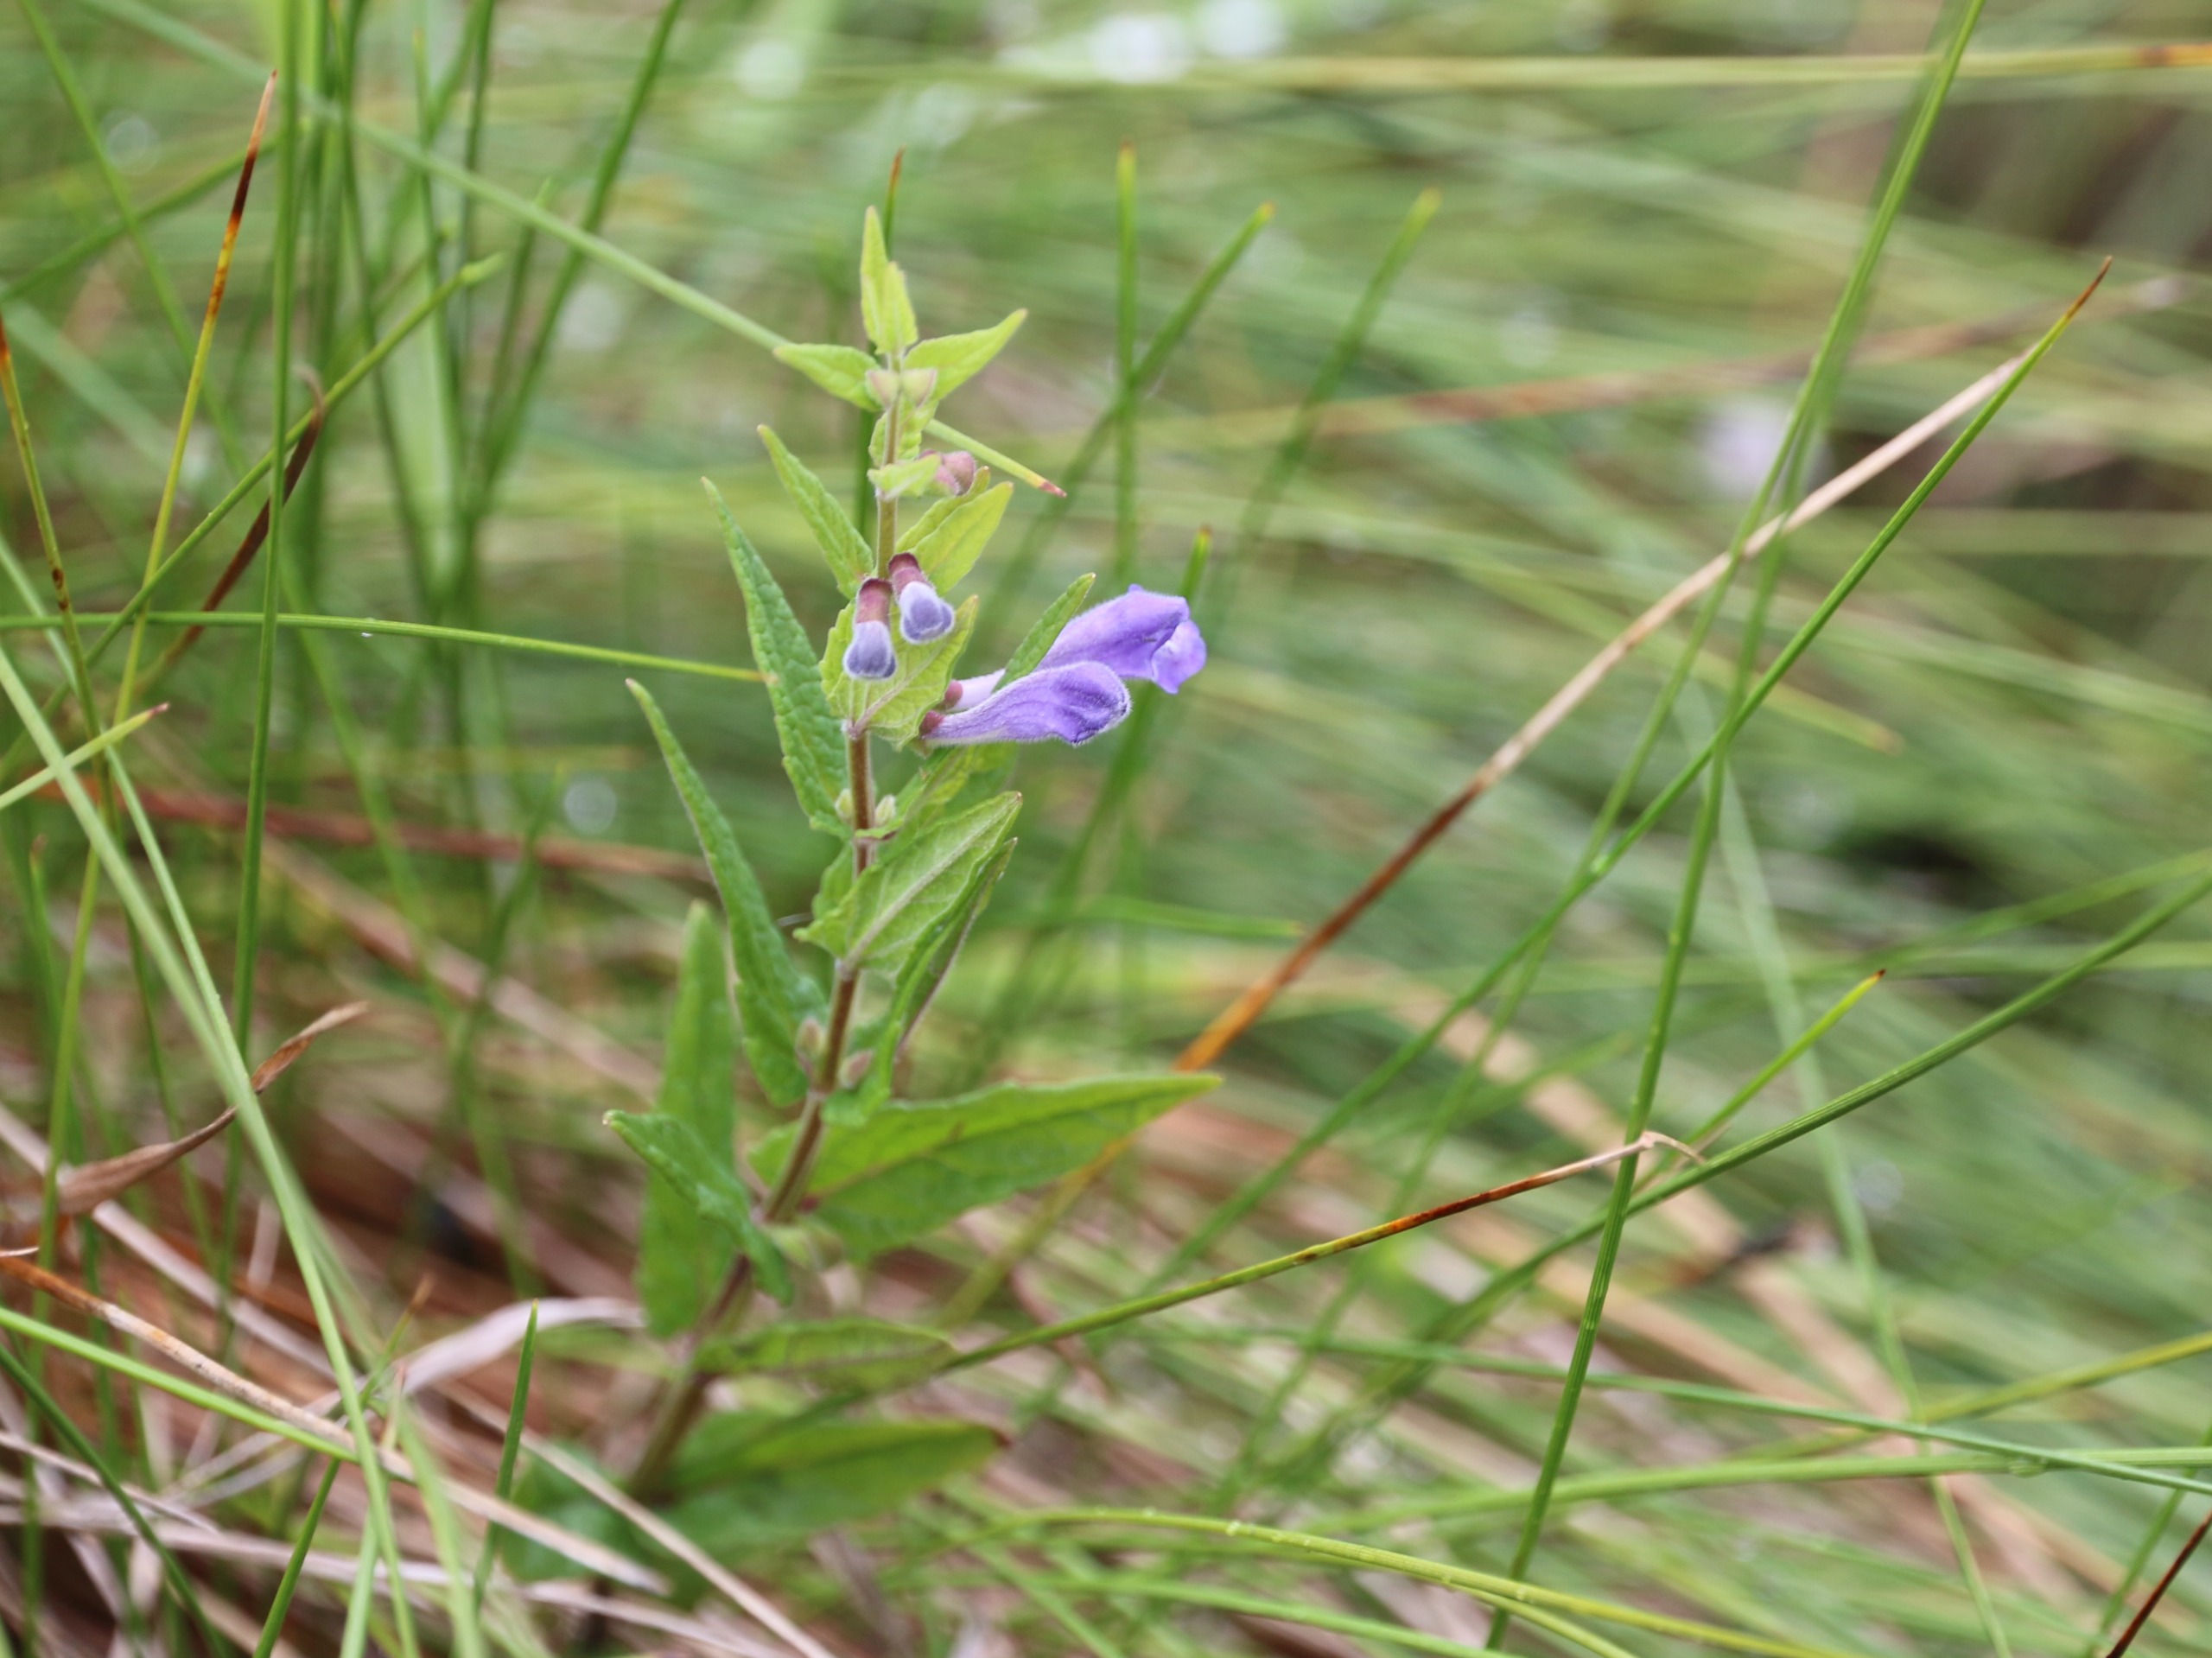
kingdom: Plantae
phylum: Tracheophyta
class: Magnoliopsida
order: Lamiales
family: Lamiaceae
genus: Scutellaria
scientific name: Scutellaria galericulata
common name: Almindelig skjolddrager
